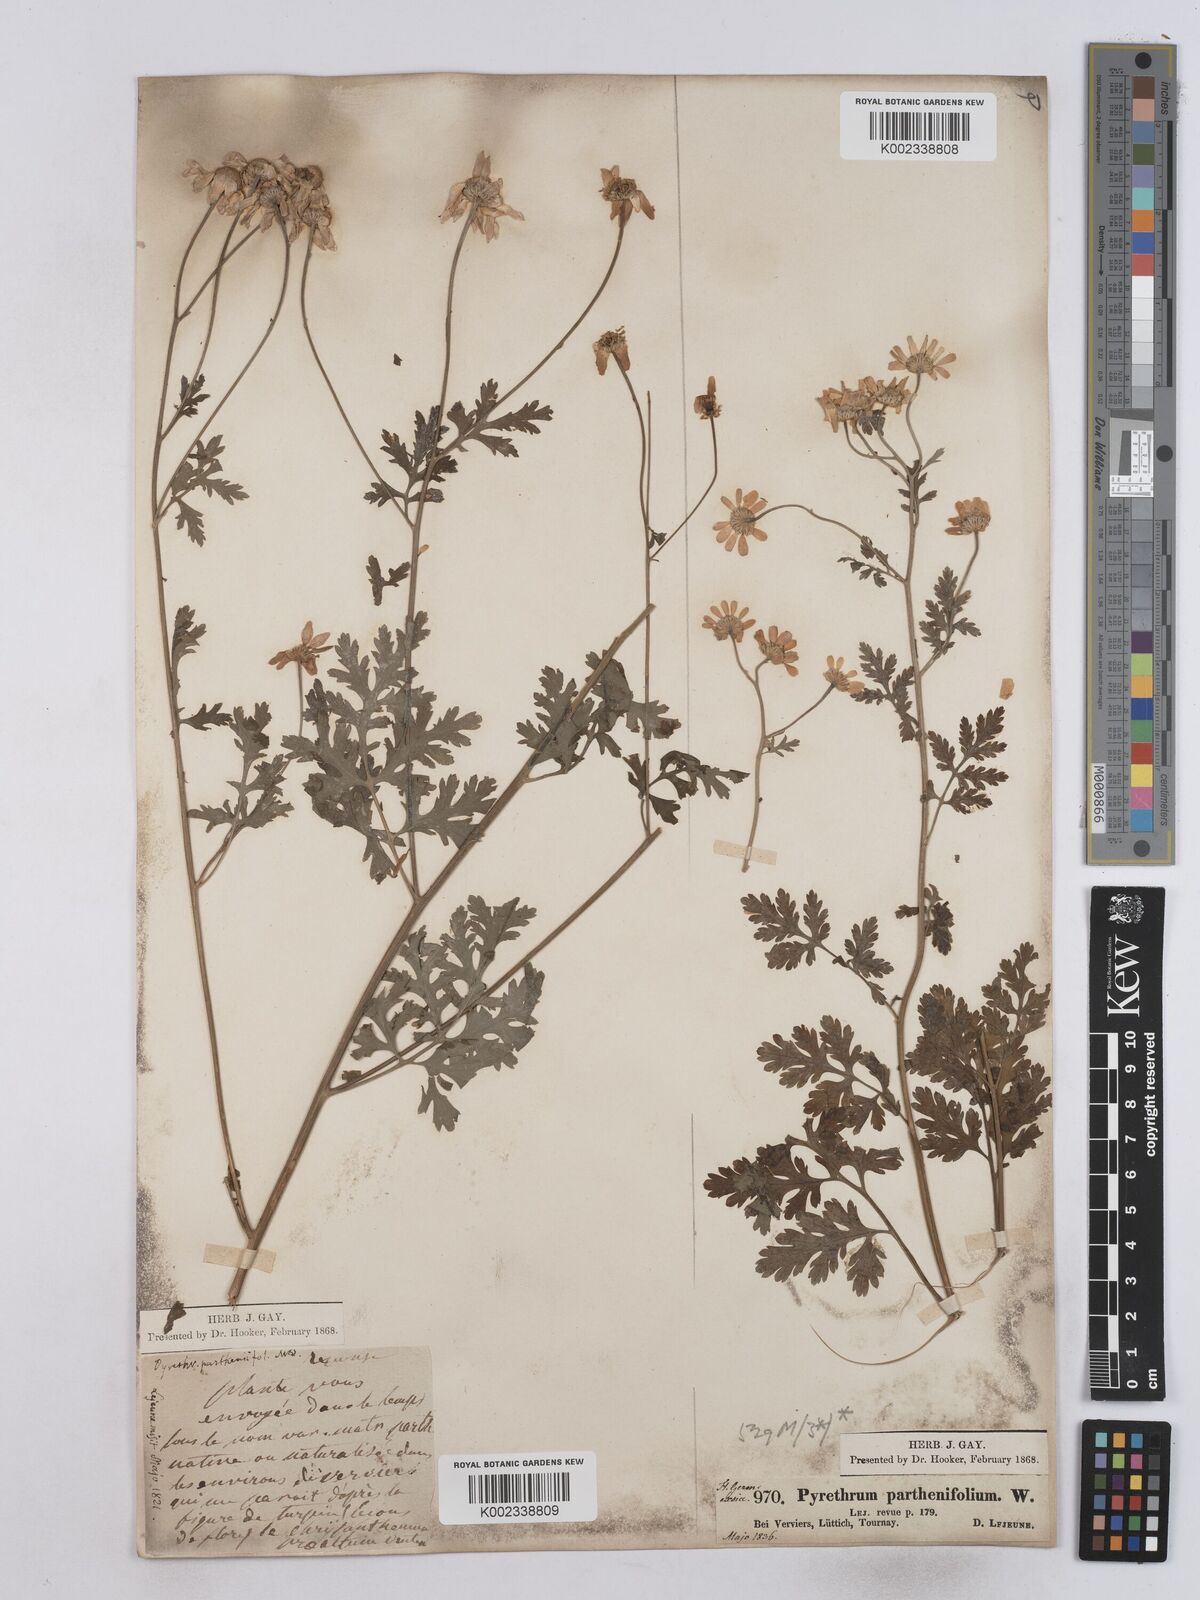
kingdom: Plantae
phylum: Tracheophyta
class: Magnoliopsida
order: Asterales
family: Asteraceae
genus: Tanacetum
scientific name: Tanacetum partheniifolium
